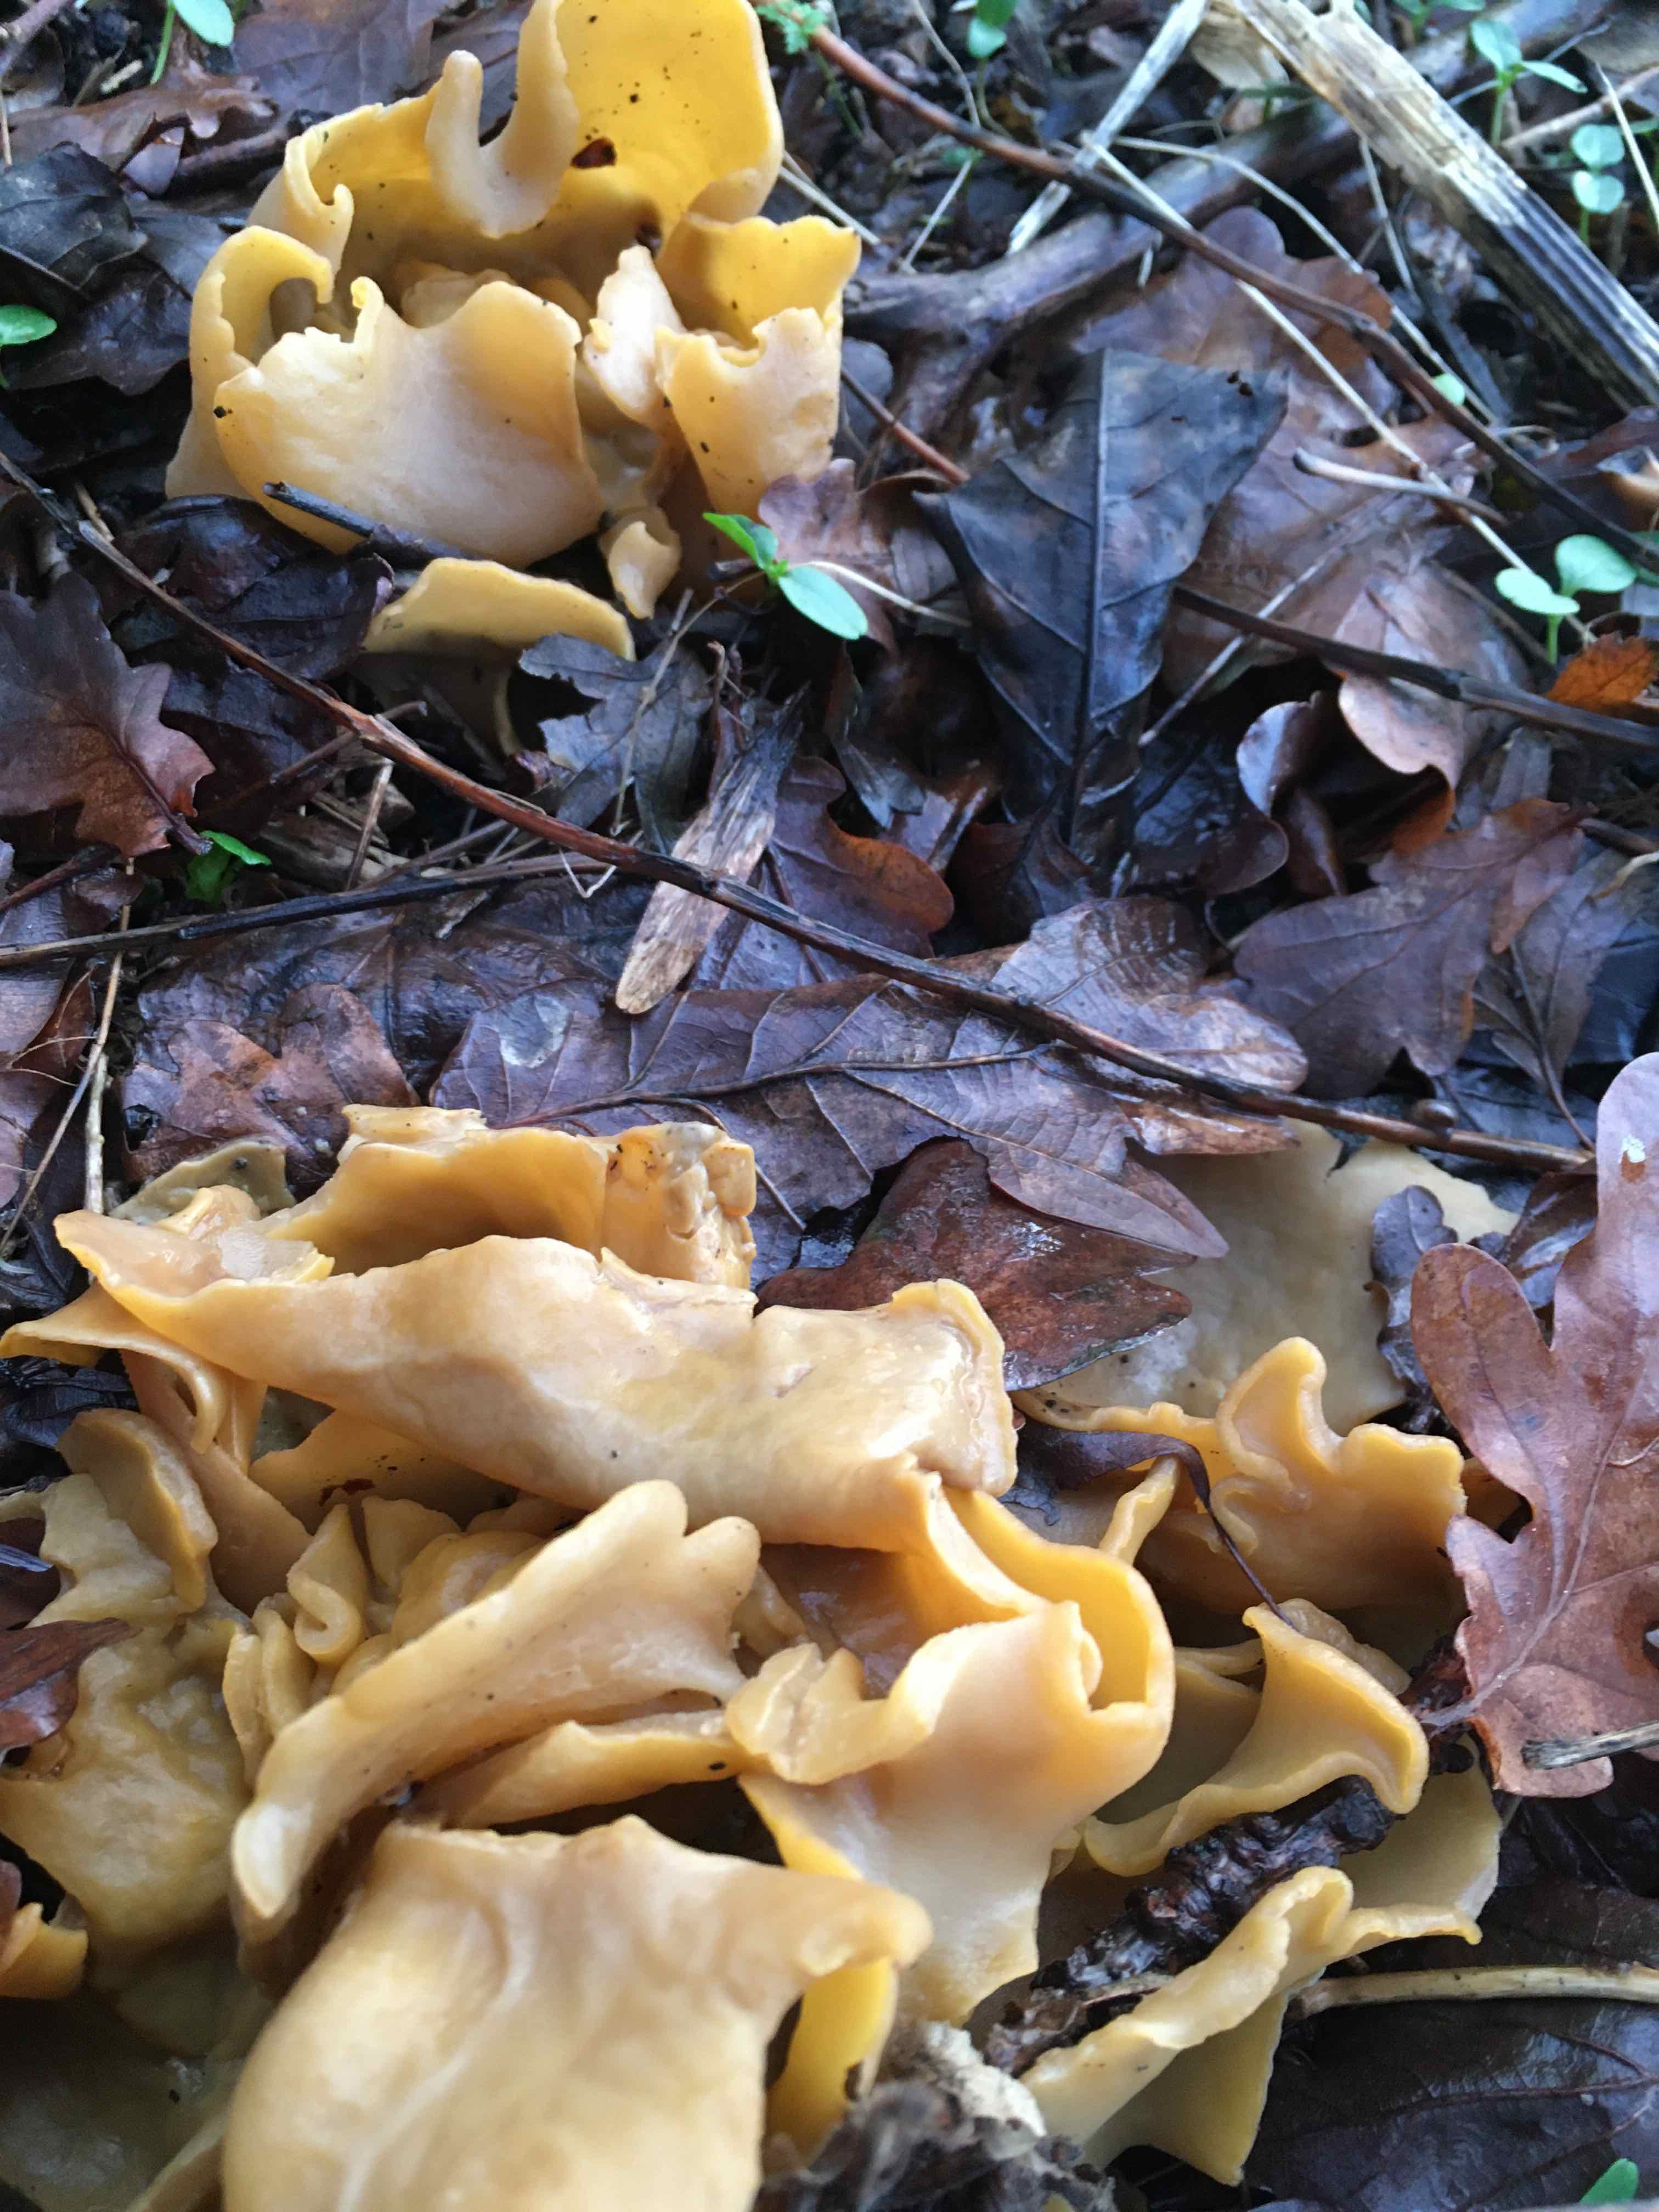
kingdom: Fungi
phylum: Ascomycota
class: Pezizomycetes
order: Pezizales
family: Pyronemataceae
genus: Sowerbyella
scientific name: Sowerbyella radiculata
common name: grøngul rodbæger
